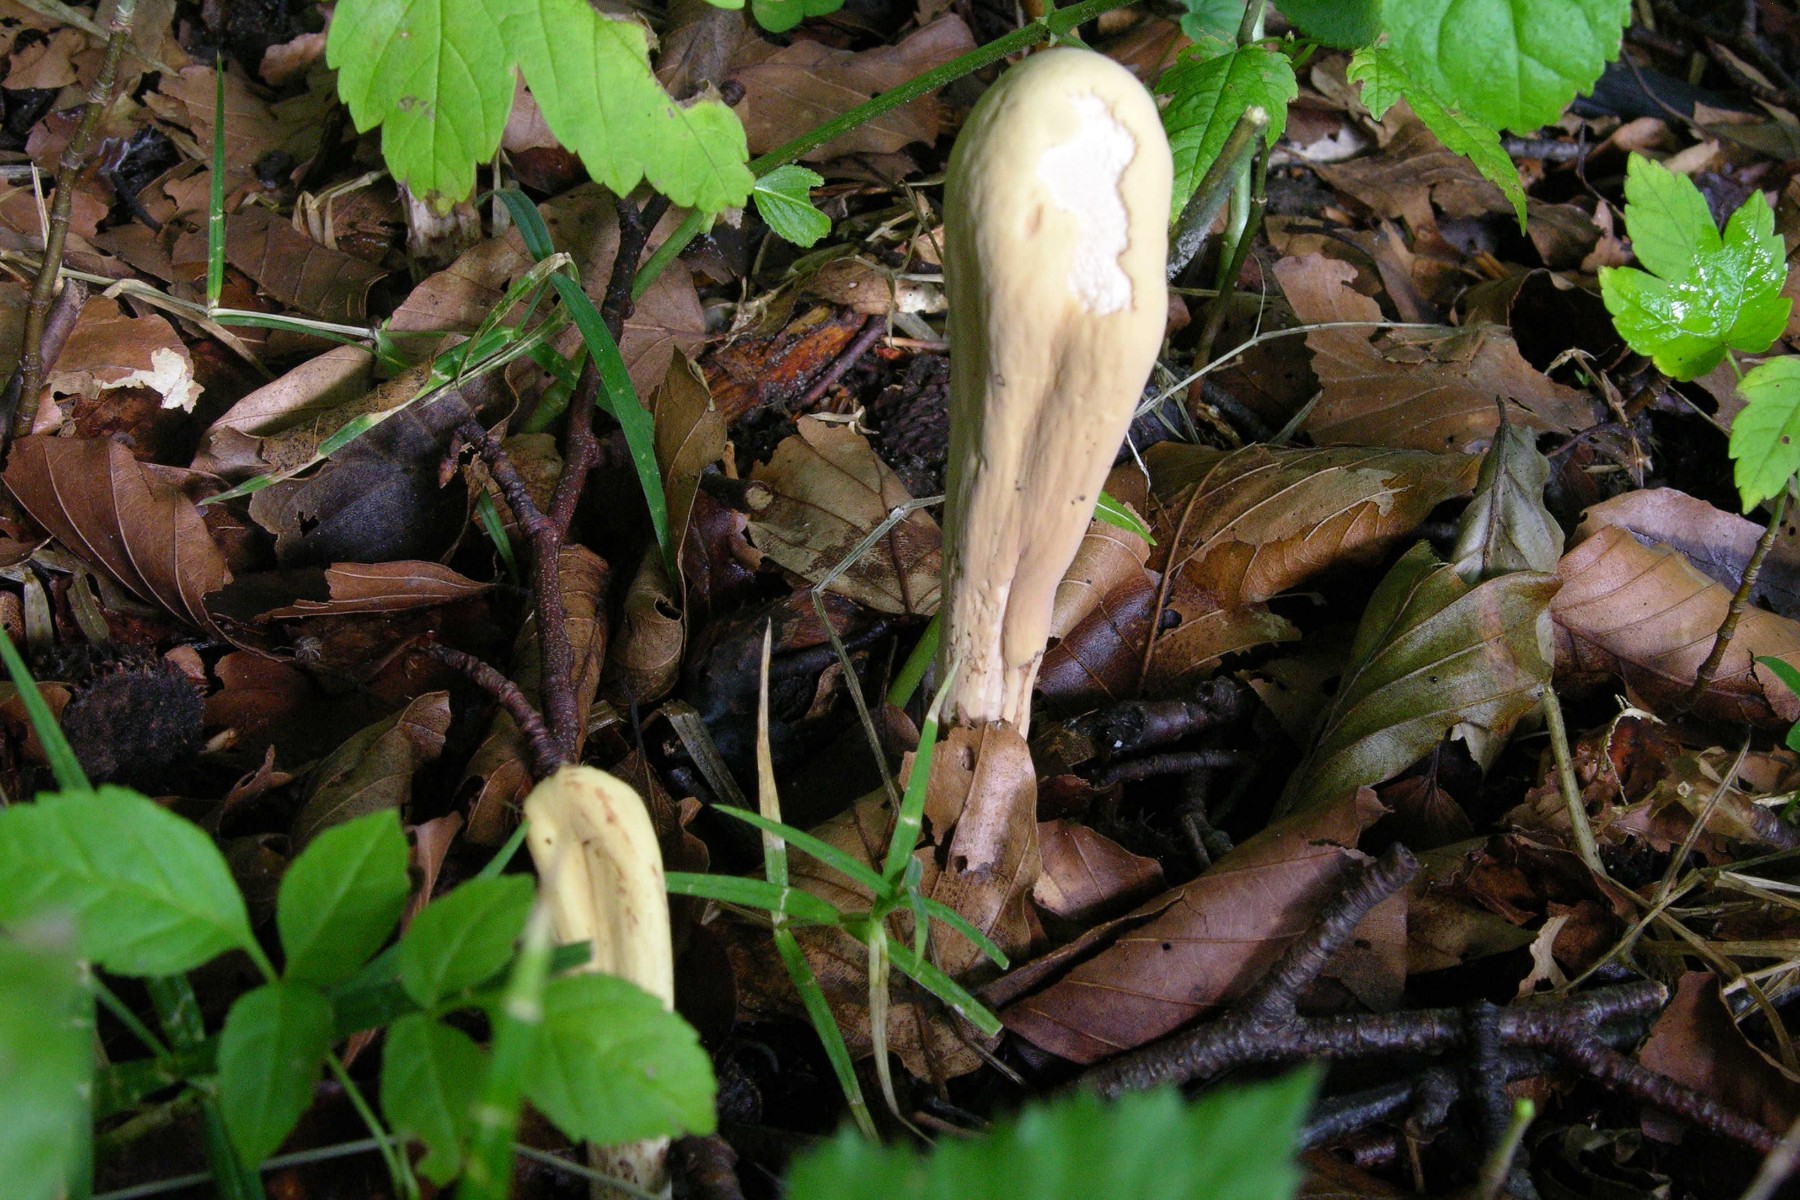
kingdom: Fungi
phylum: Basidiomycota
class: Agaricomycetes
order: Gomphales
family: Clavariadelphaceae
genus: Clavariadelphus
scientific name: Clavariadelphus pistillaris
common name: herkules-kæmpekølle
